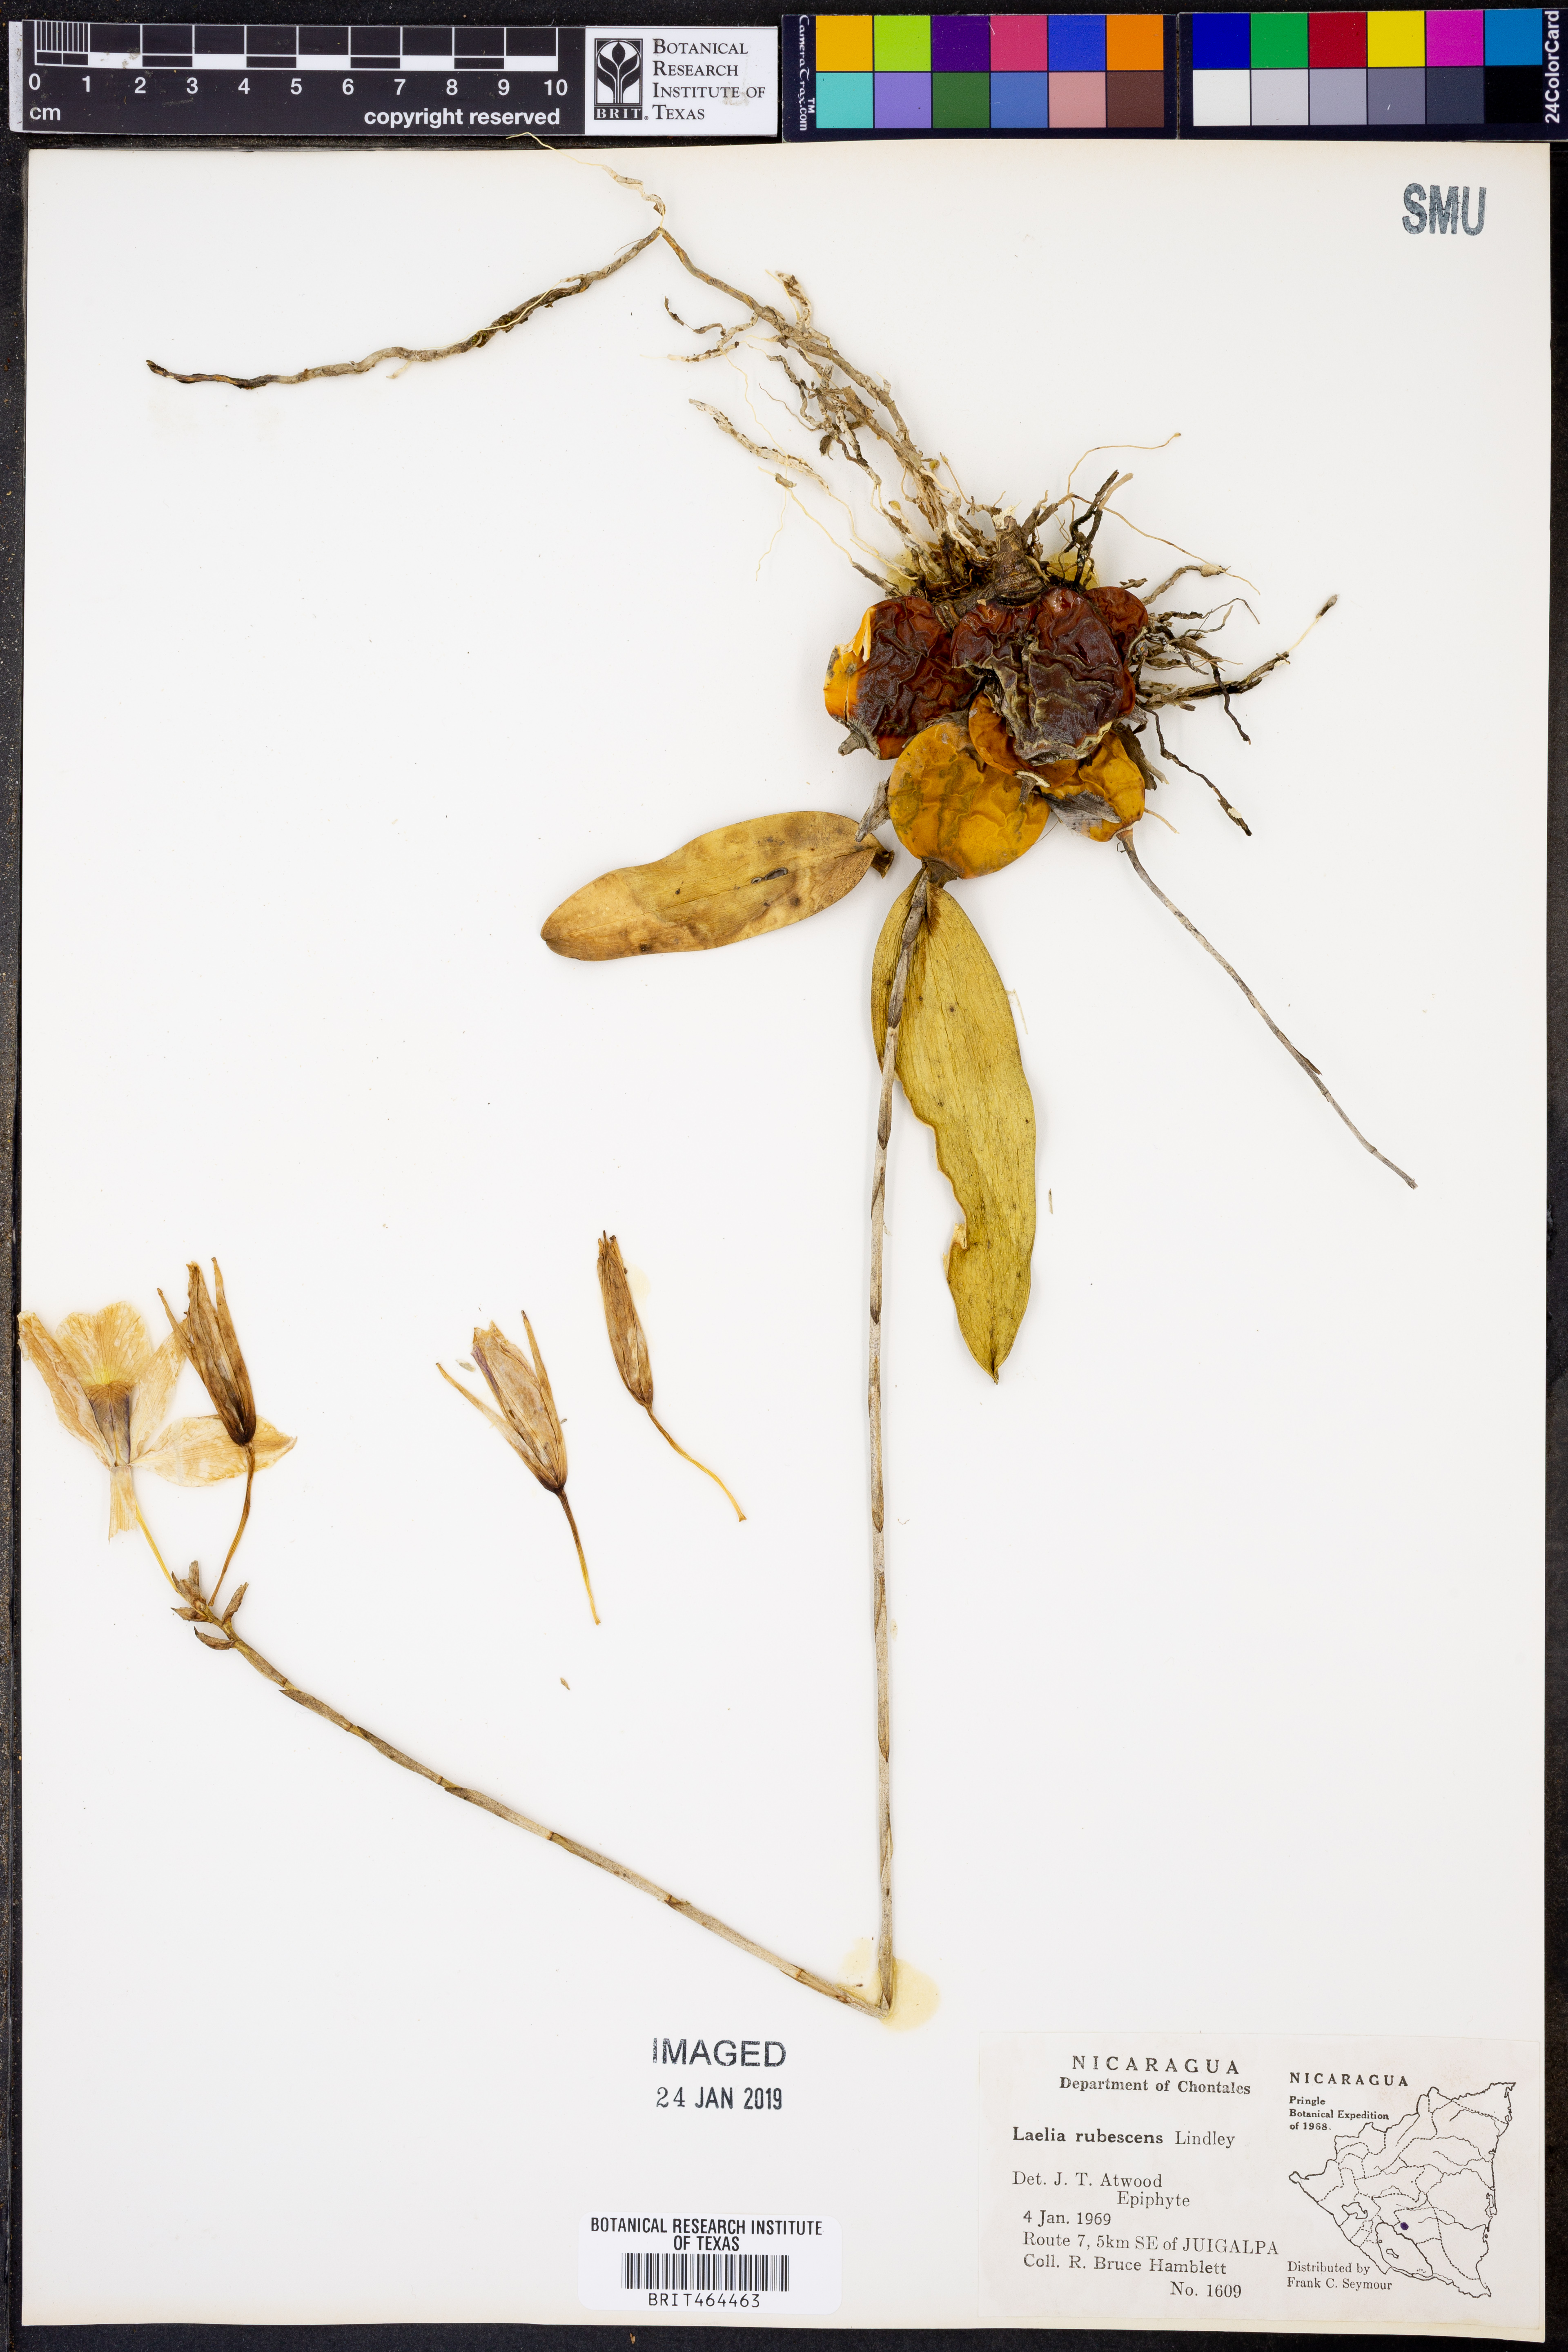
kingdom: Plantae
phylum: Tracheophyta
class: Liliopsida
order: Asparagales
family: Orchidaceae
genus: Laelia
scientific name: Laelia rubescens
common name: Pale laelia
